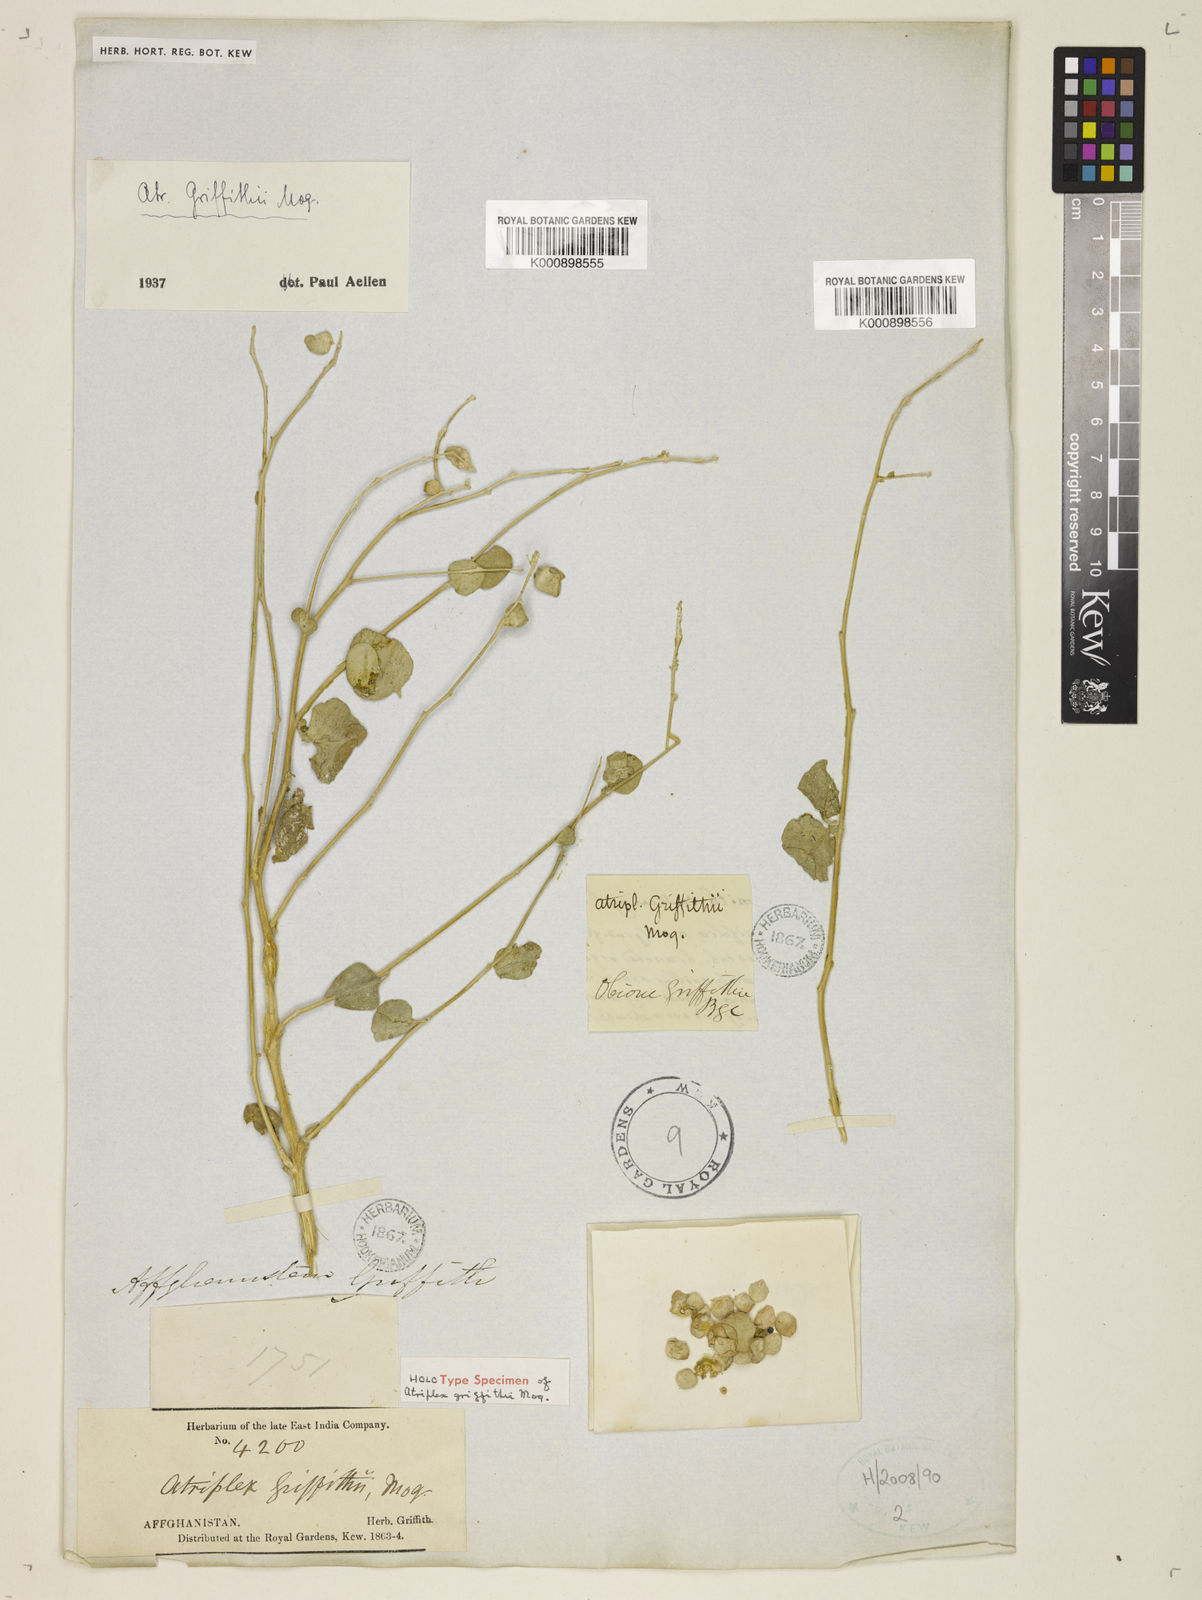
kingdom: Plantae
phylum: Tracheophyta
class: Magnoliopsida
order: Caryophyllales
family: Amaranthaceae
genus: Atriplex
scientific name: Atriplex griffithii
